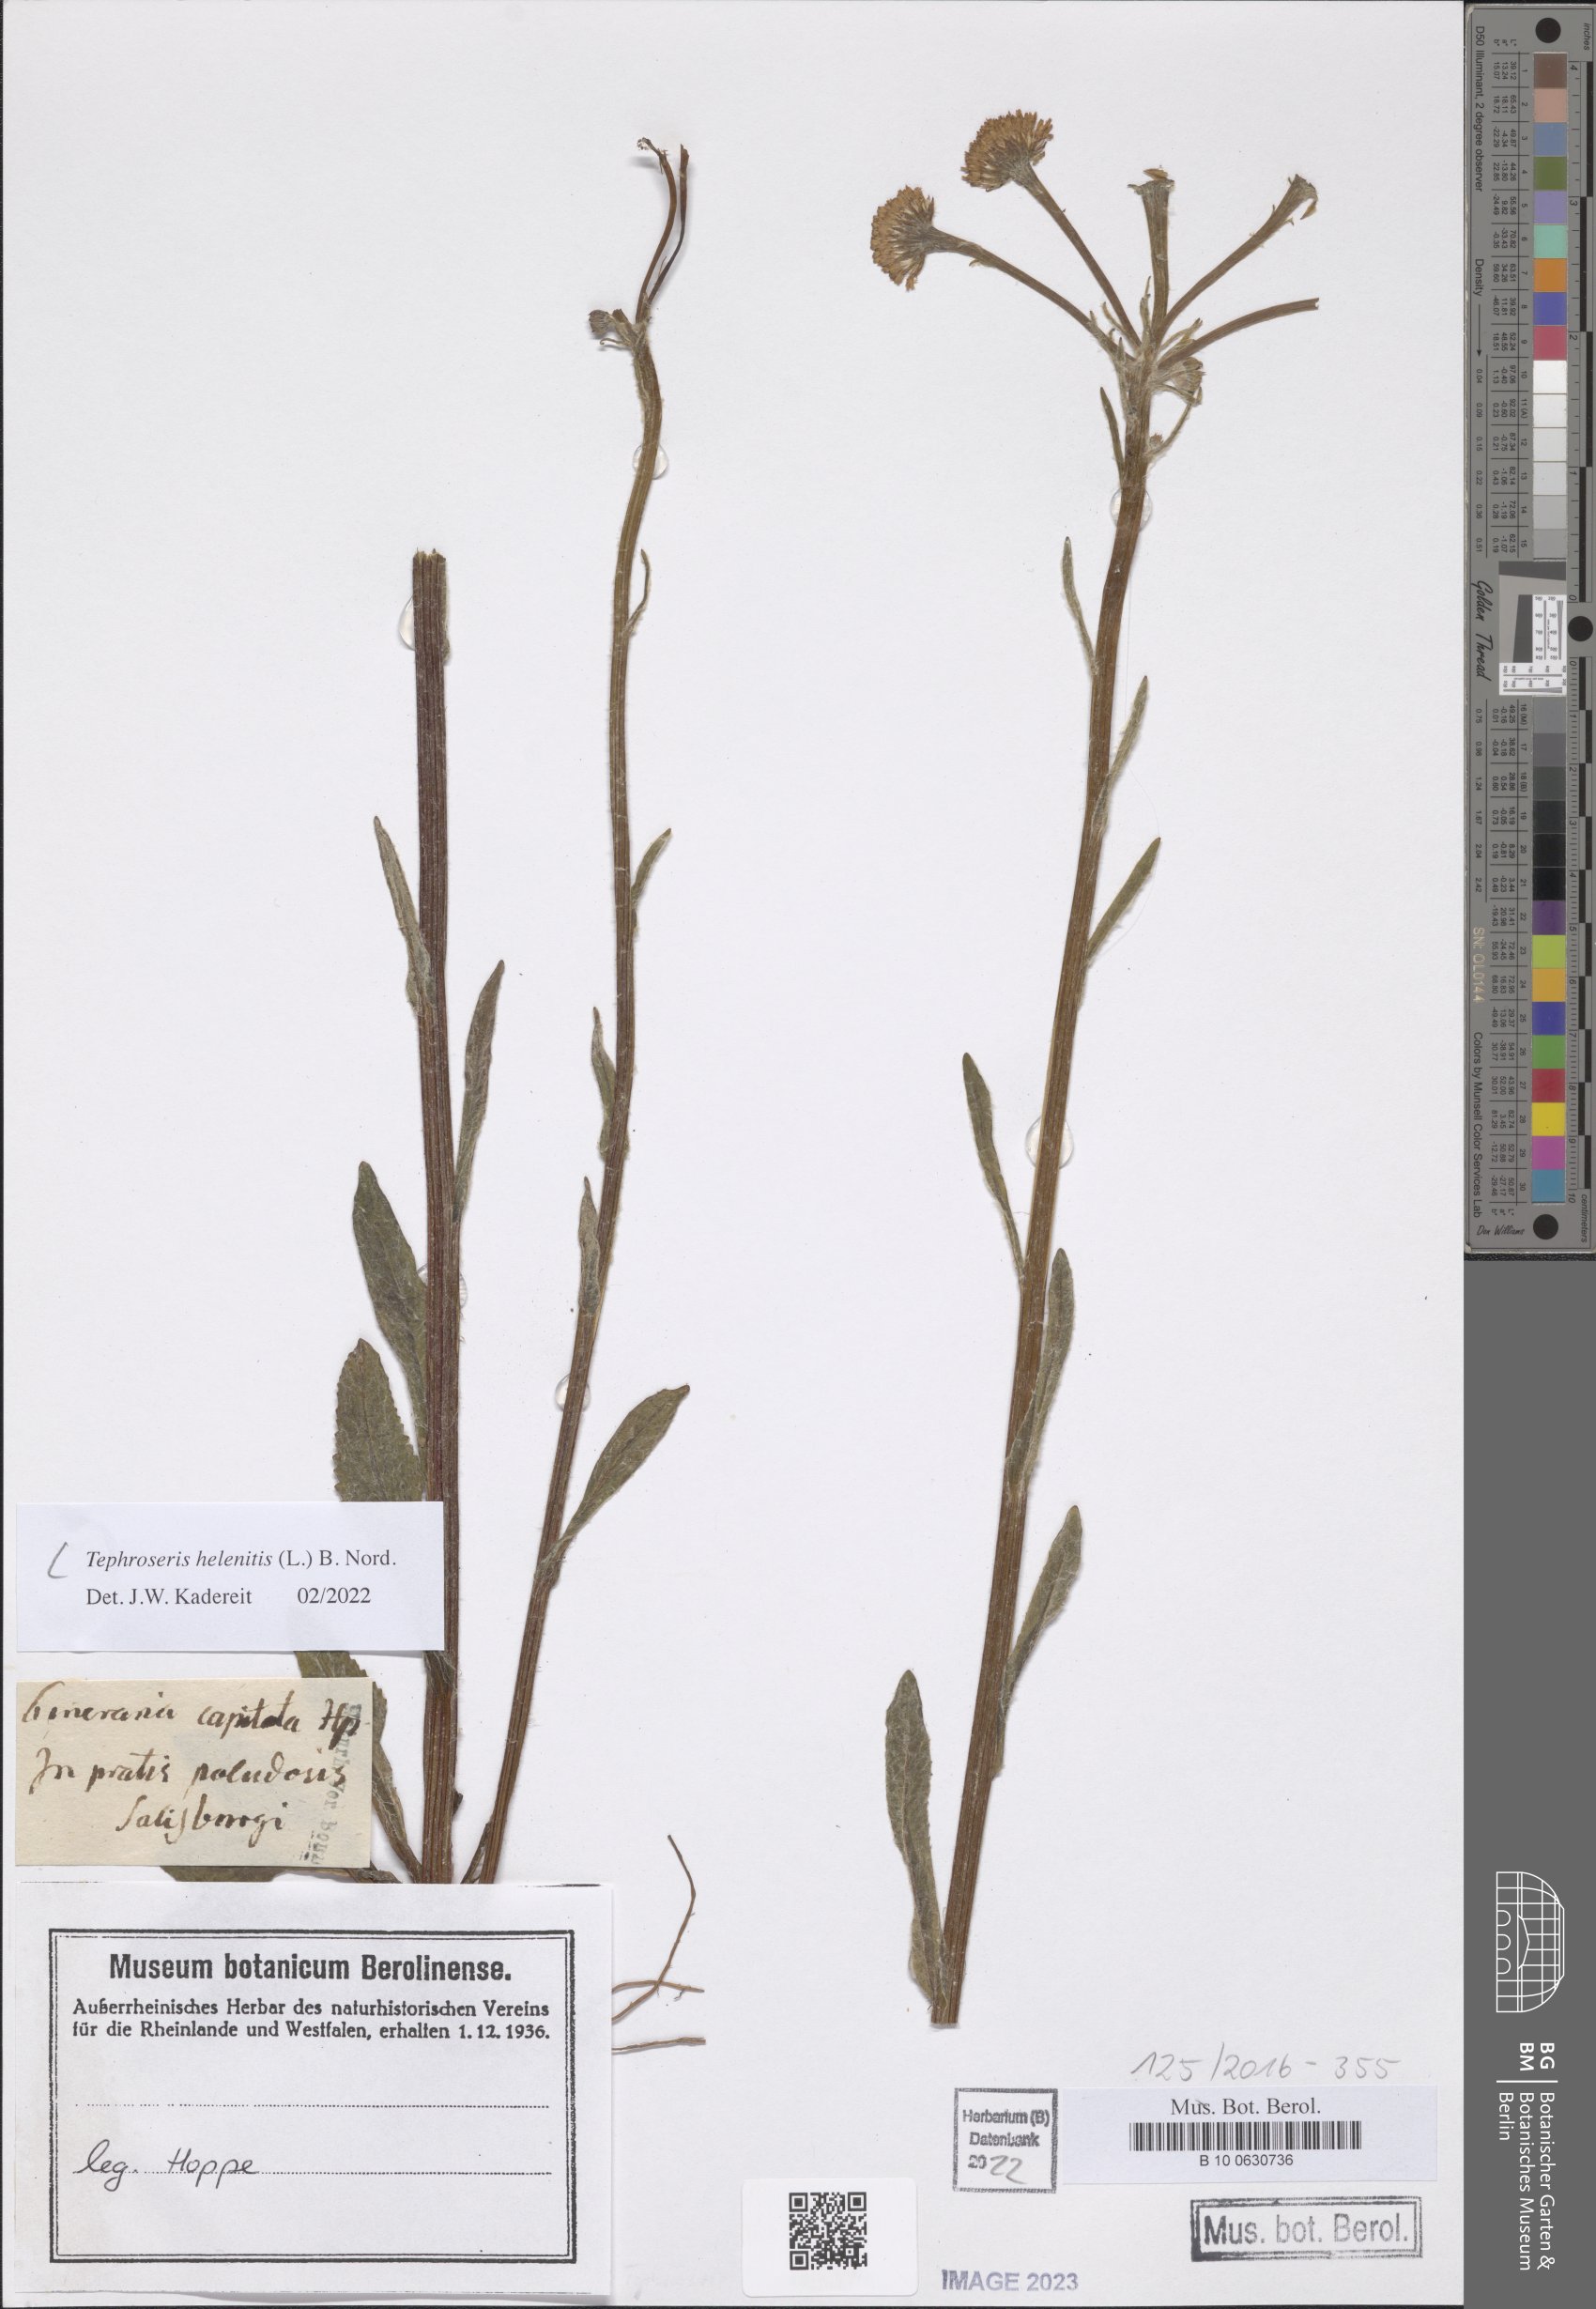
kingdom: Plantae
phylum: Tracheophyta
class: Magnoliopsida
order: Asterales
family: Asteraceae
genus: Tephroseris
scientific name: Tephroseris helenitis
